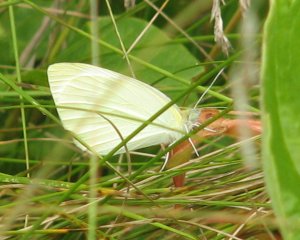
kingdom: Animalia
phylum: Arthropoda
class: Insecta
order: Lepidoptera
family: Pieridae
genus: Pieris
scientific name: Pieris rapae
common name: Cabbage White
